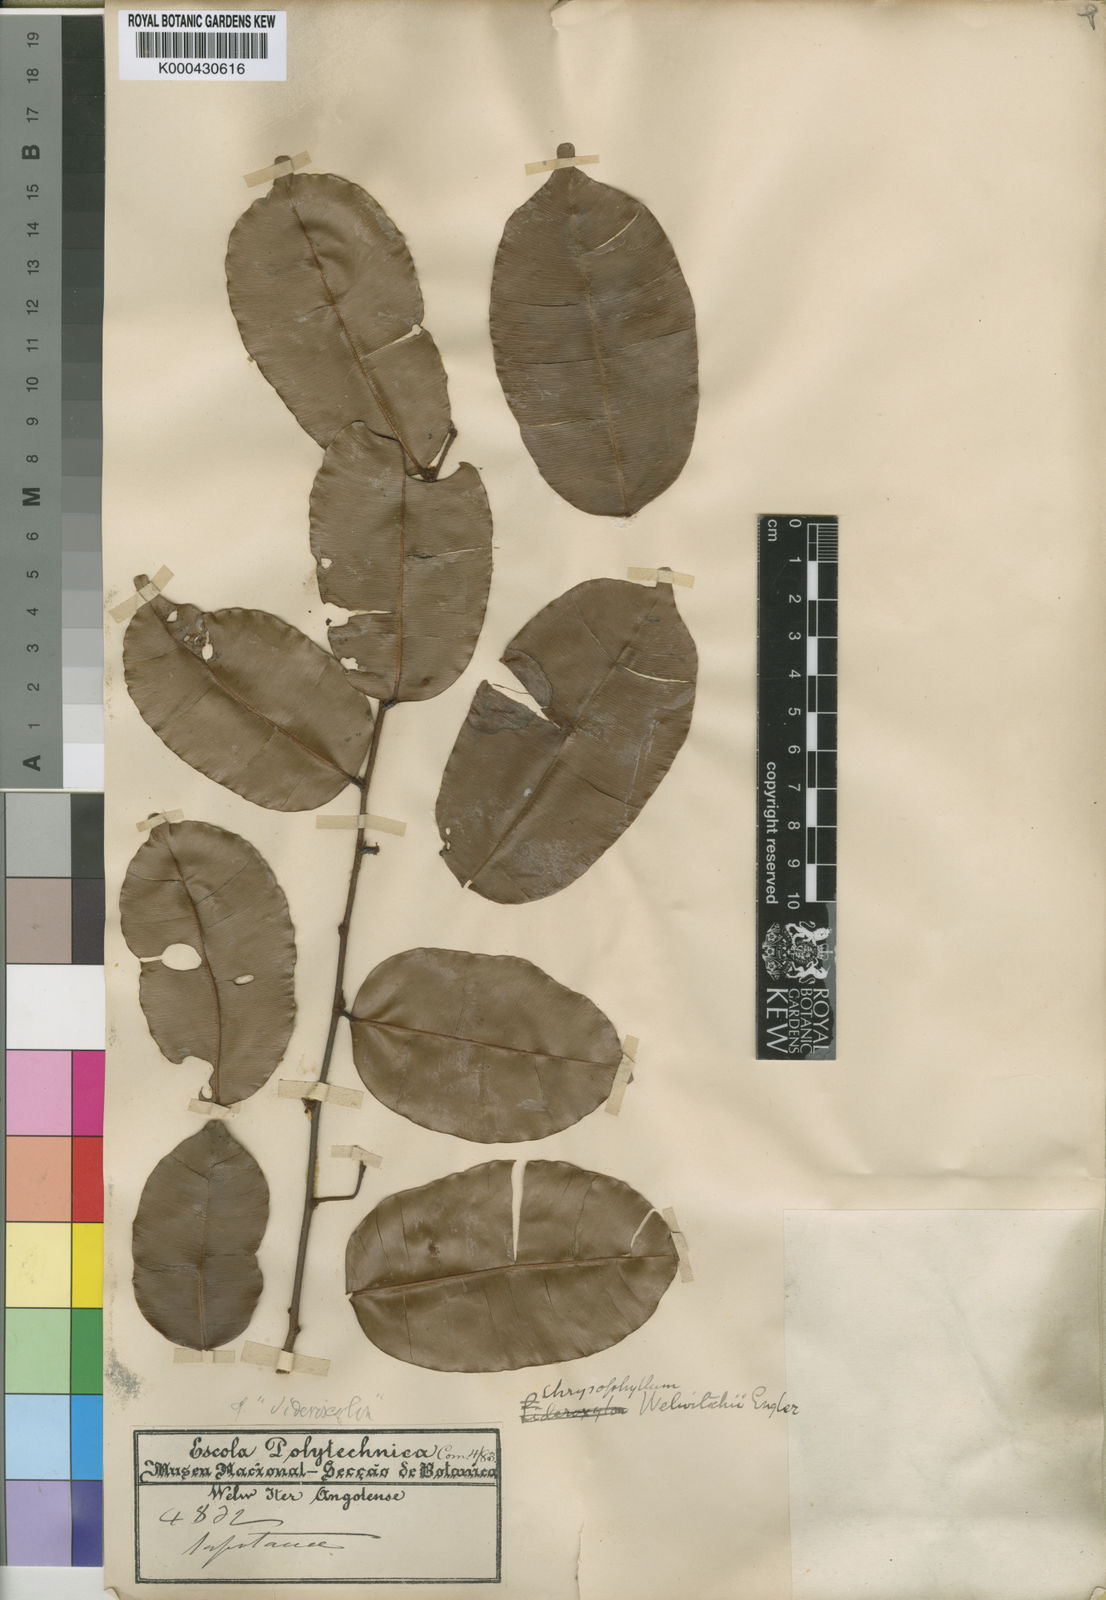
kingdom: Plantae
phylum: Tracheophyta
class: Magnoliopsida
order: Ericales
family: Sapotaceae
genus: Donella
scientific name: Donella welwitschii
